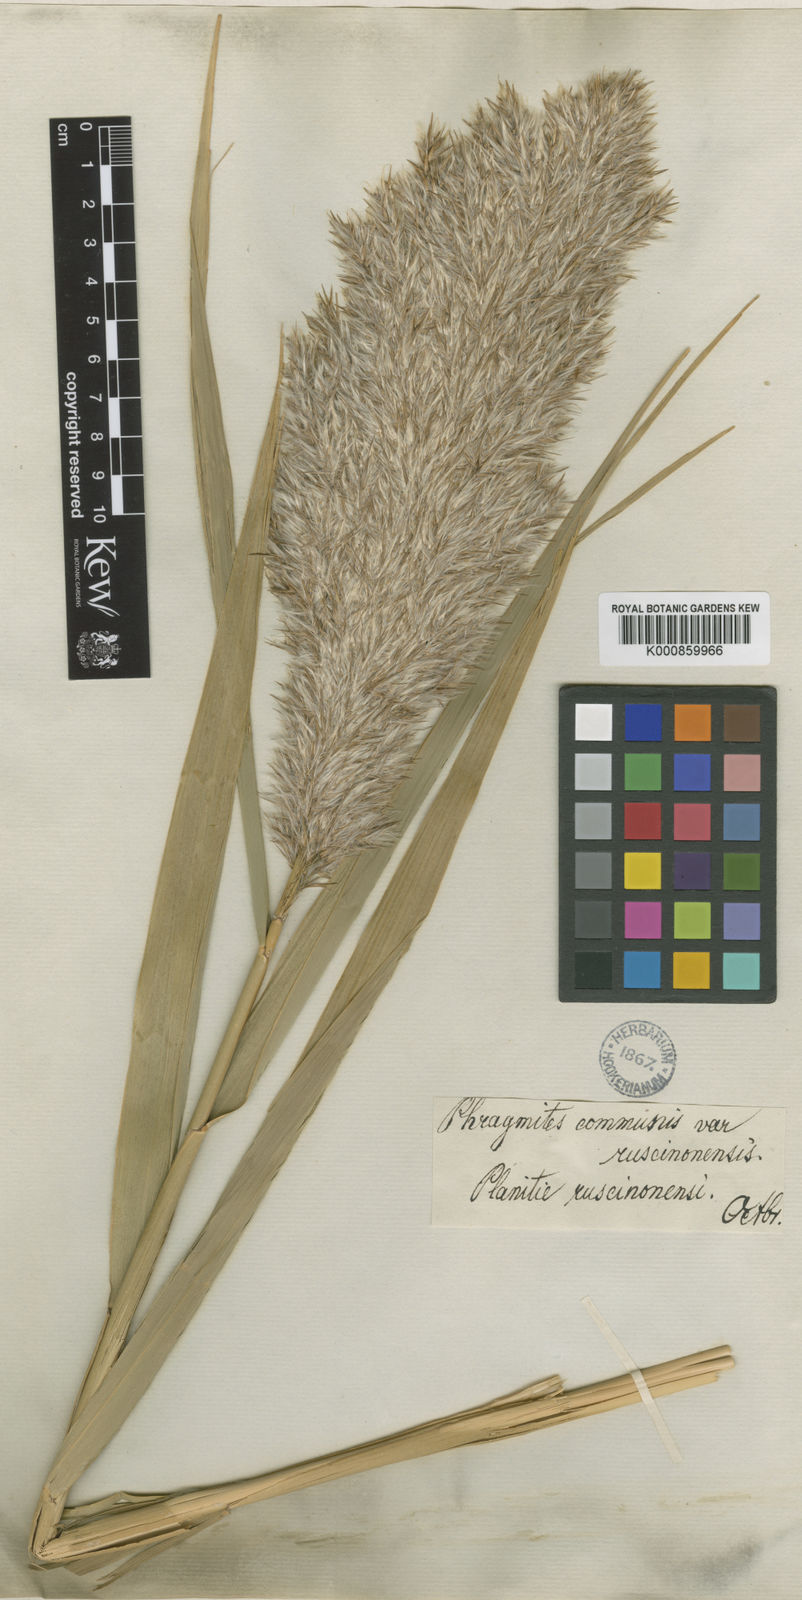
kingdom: Plantae
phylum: Tracheophyta
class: Liliopsida
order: Poales
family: Poaceae
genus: Phragmites
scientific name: Phragmites australis
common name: Common reed
